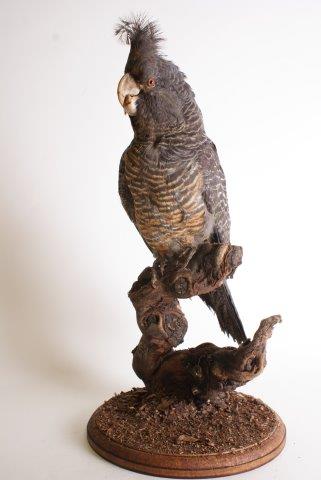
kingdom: Animalia
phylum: Chordata
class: Aves
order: Psittaciformes
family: Psittacidae
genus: Callocephalon
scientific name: Callocephalon fimbriatum
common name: Gang-gang cockatoo
